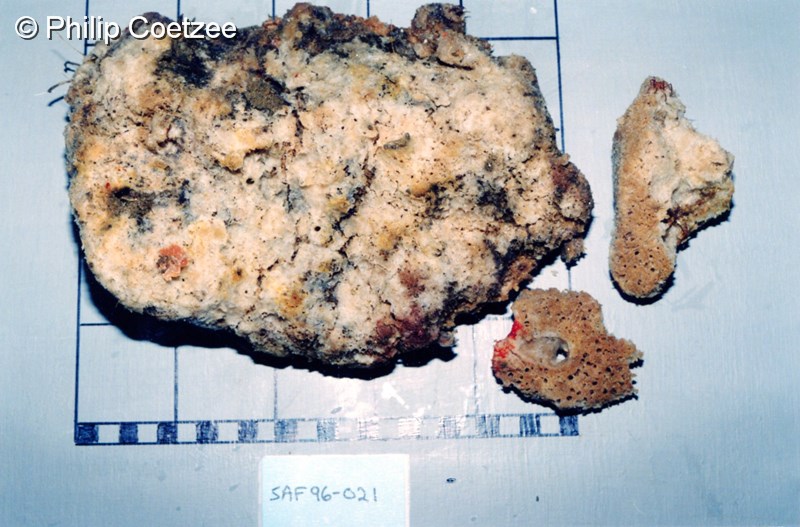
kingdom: Animalia
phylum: Porifera
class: Demospongiae
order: Axinellida
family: Raspailiidae
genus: Aulospongus
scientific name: Aulospongus monticularis
